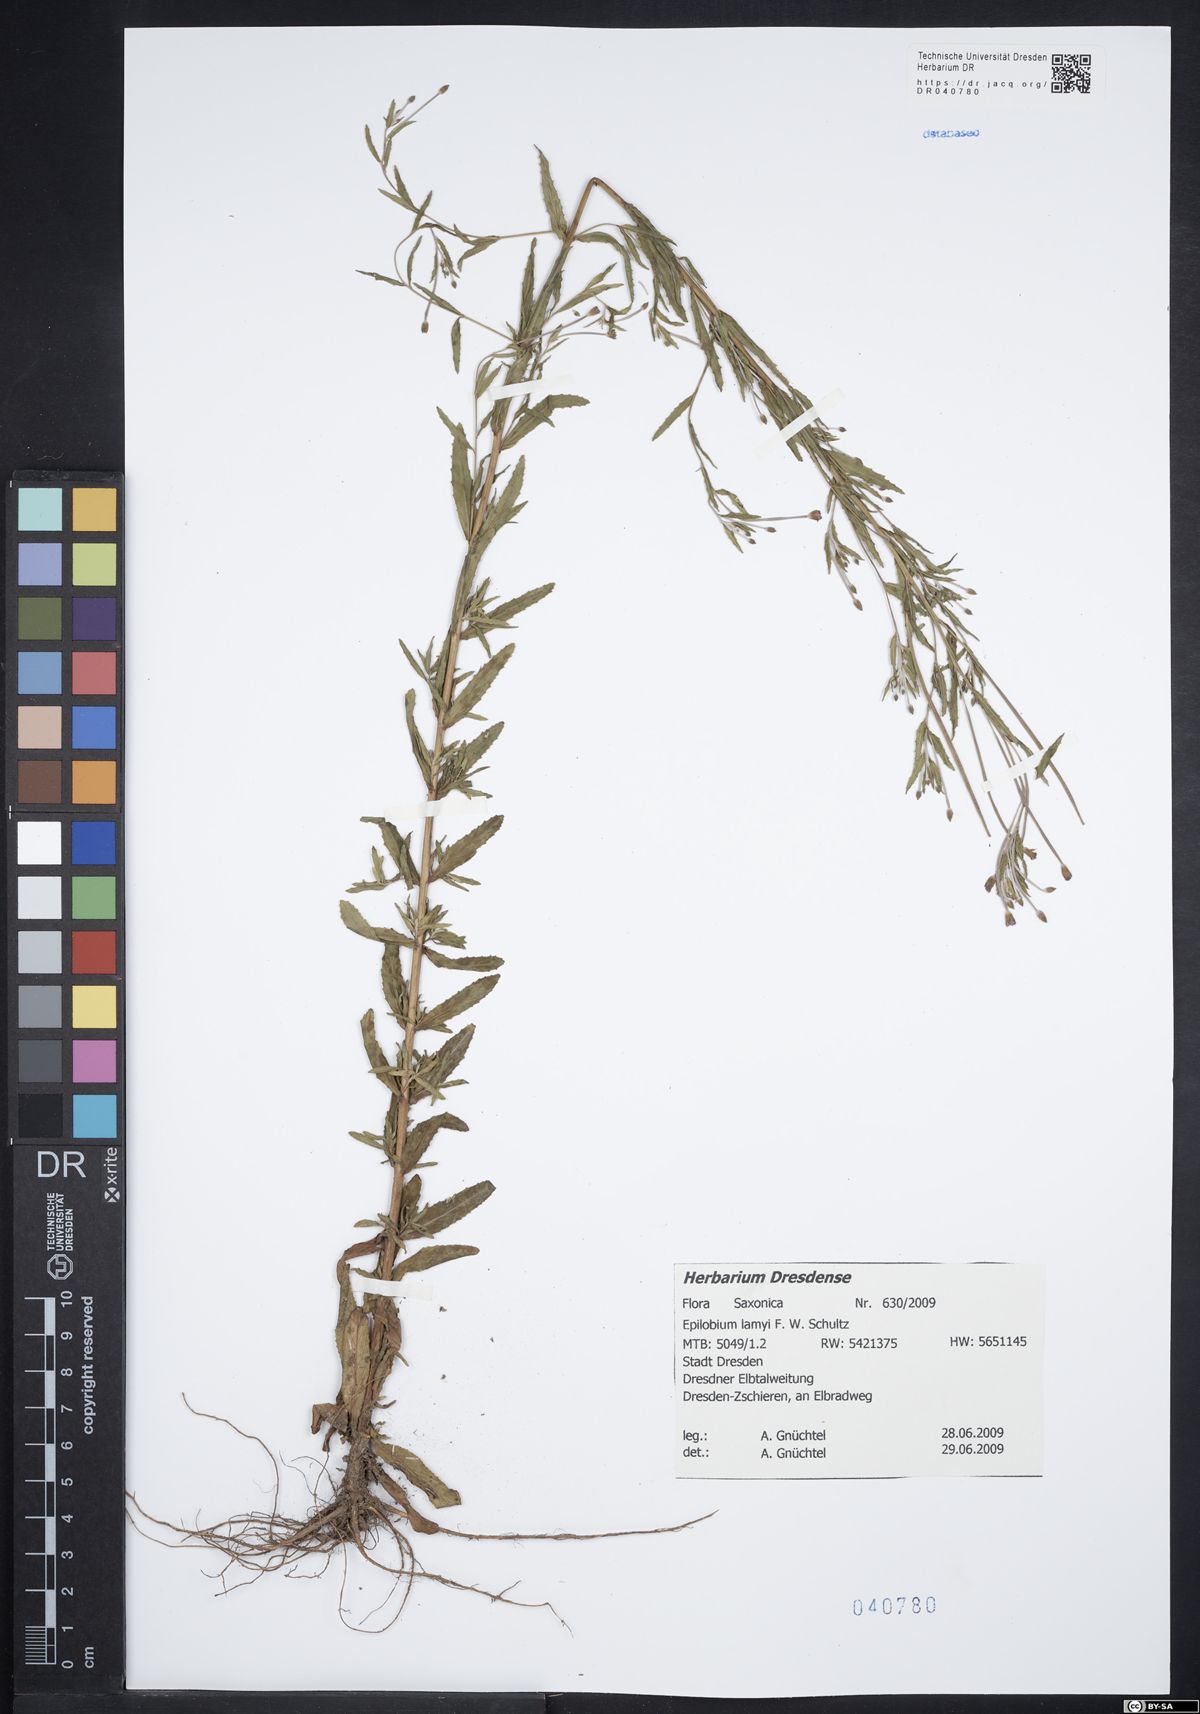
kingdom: Plantae
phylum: Tracheophyta
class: Magnoliopsida
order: Myrtales
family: Onagraceae
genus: Epilobium
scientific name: Epilobium lamyi
